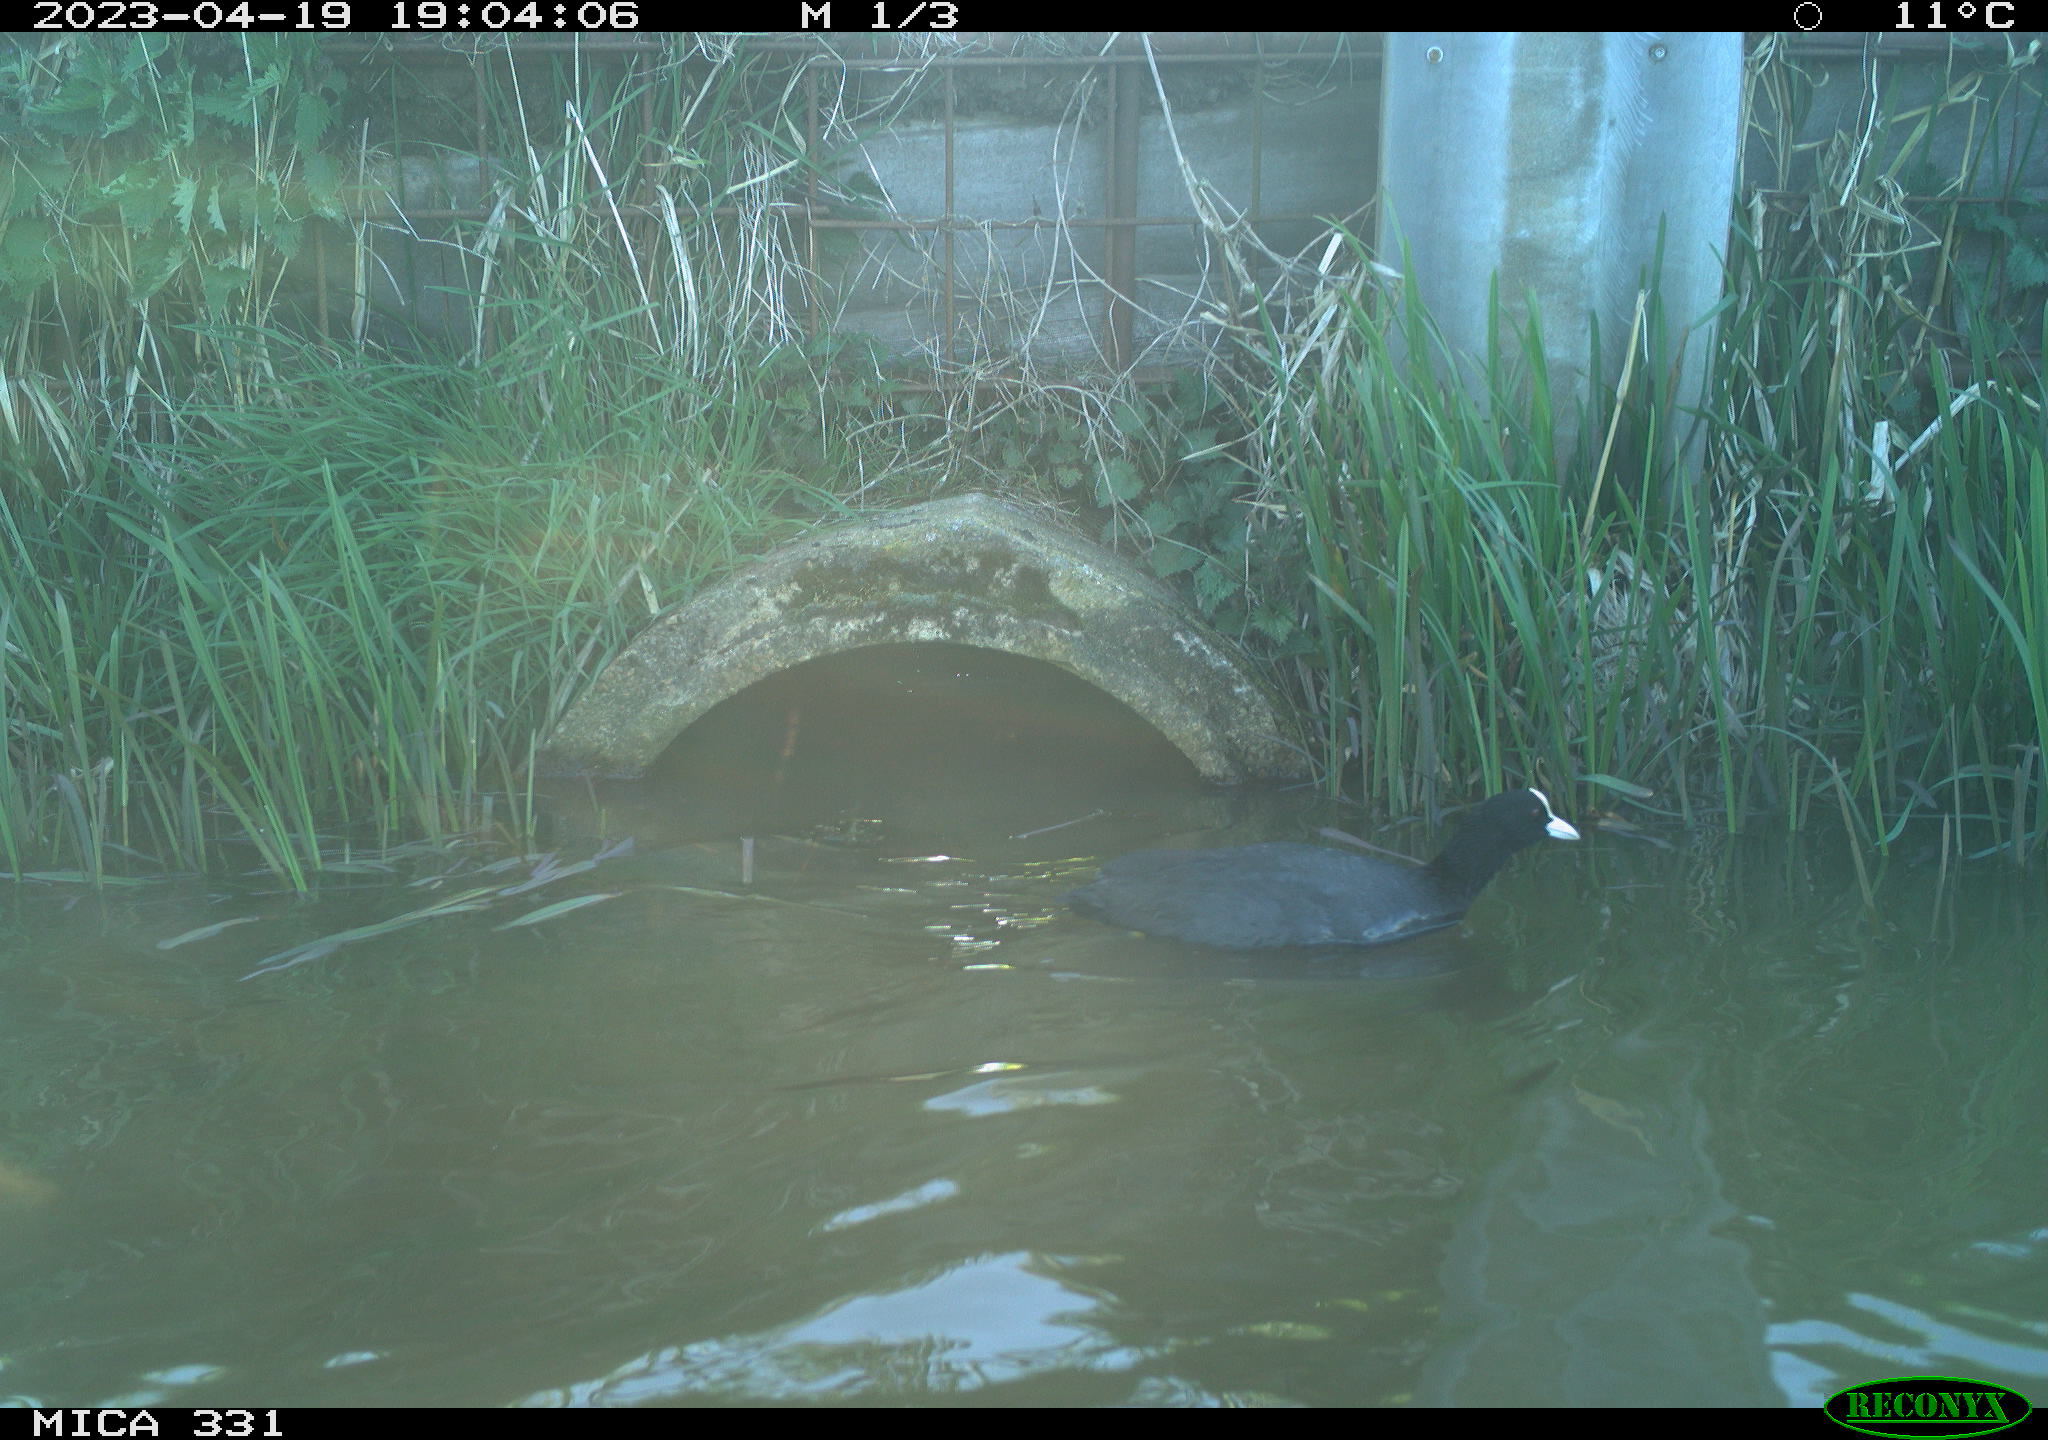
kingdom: Animalia
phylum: Chordata
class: Aves
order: Gruiformes
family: Rallidae
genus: Fulica
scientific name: Fulica atra
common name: Eurasian coot
